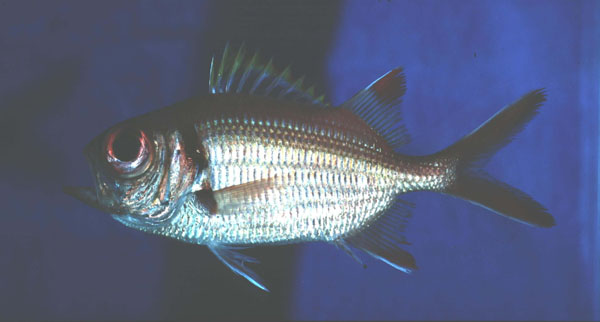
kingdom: Animalia
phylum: Chordata
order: Beryciformes
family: Holocentridae
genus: Myripristis
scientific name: Myripristis kuntee
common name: Epaulette soldierfish
